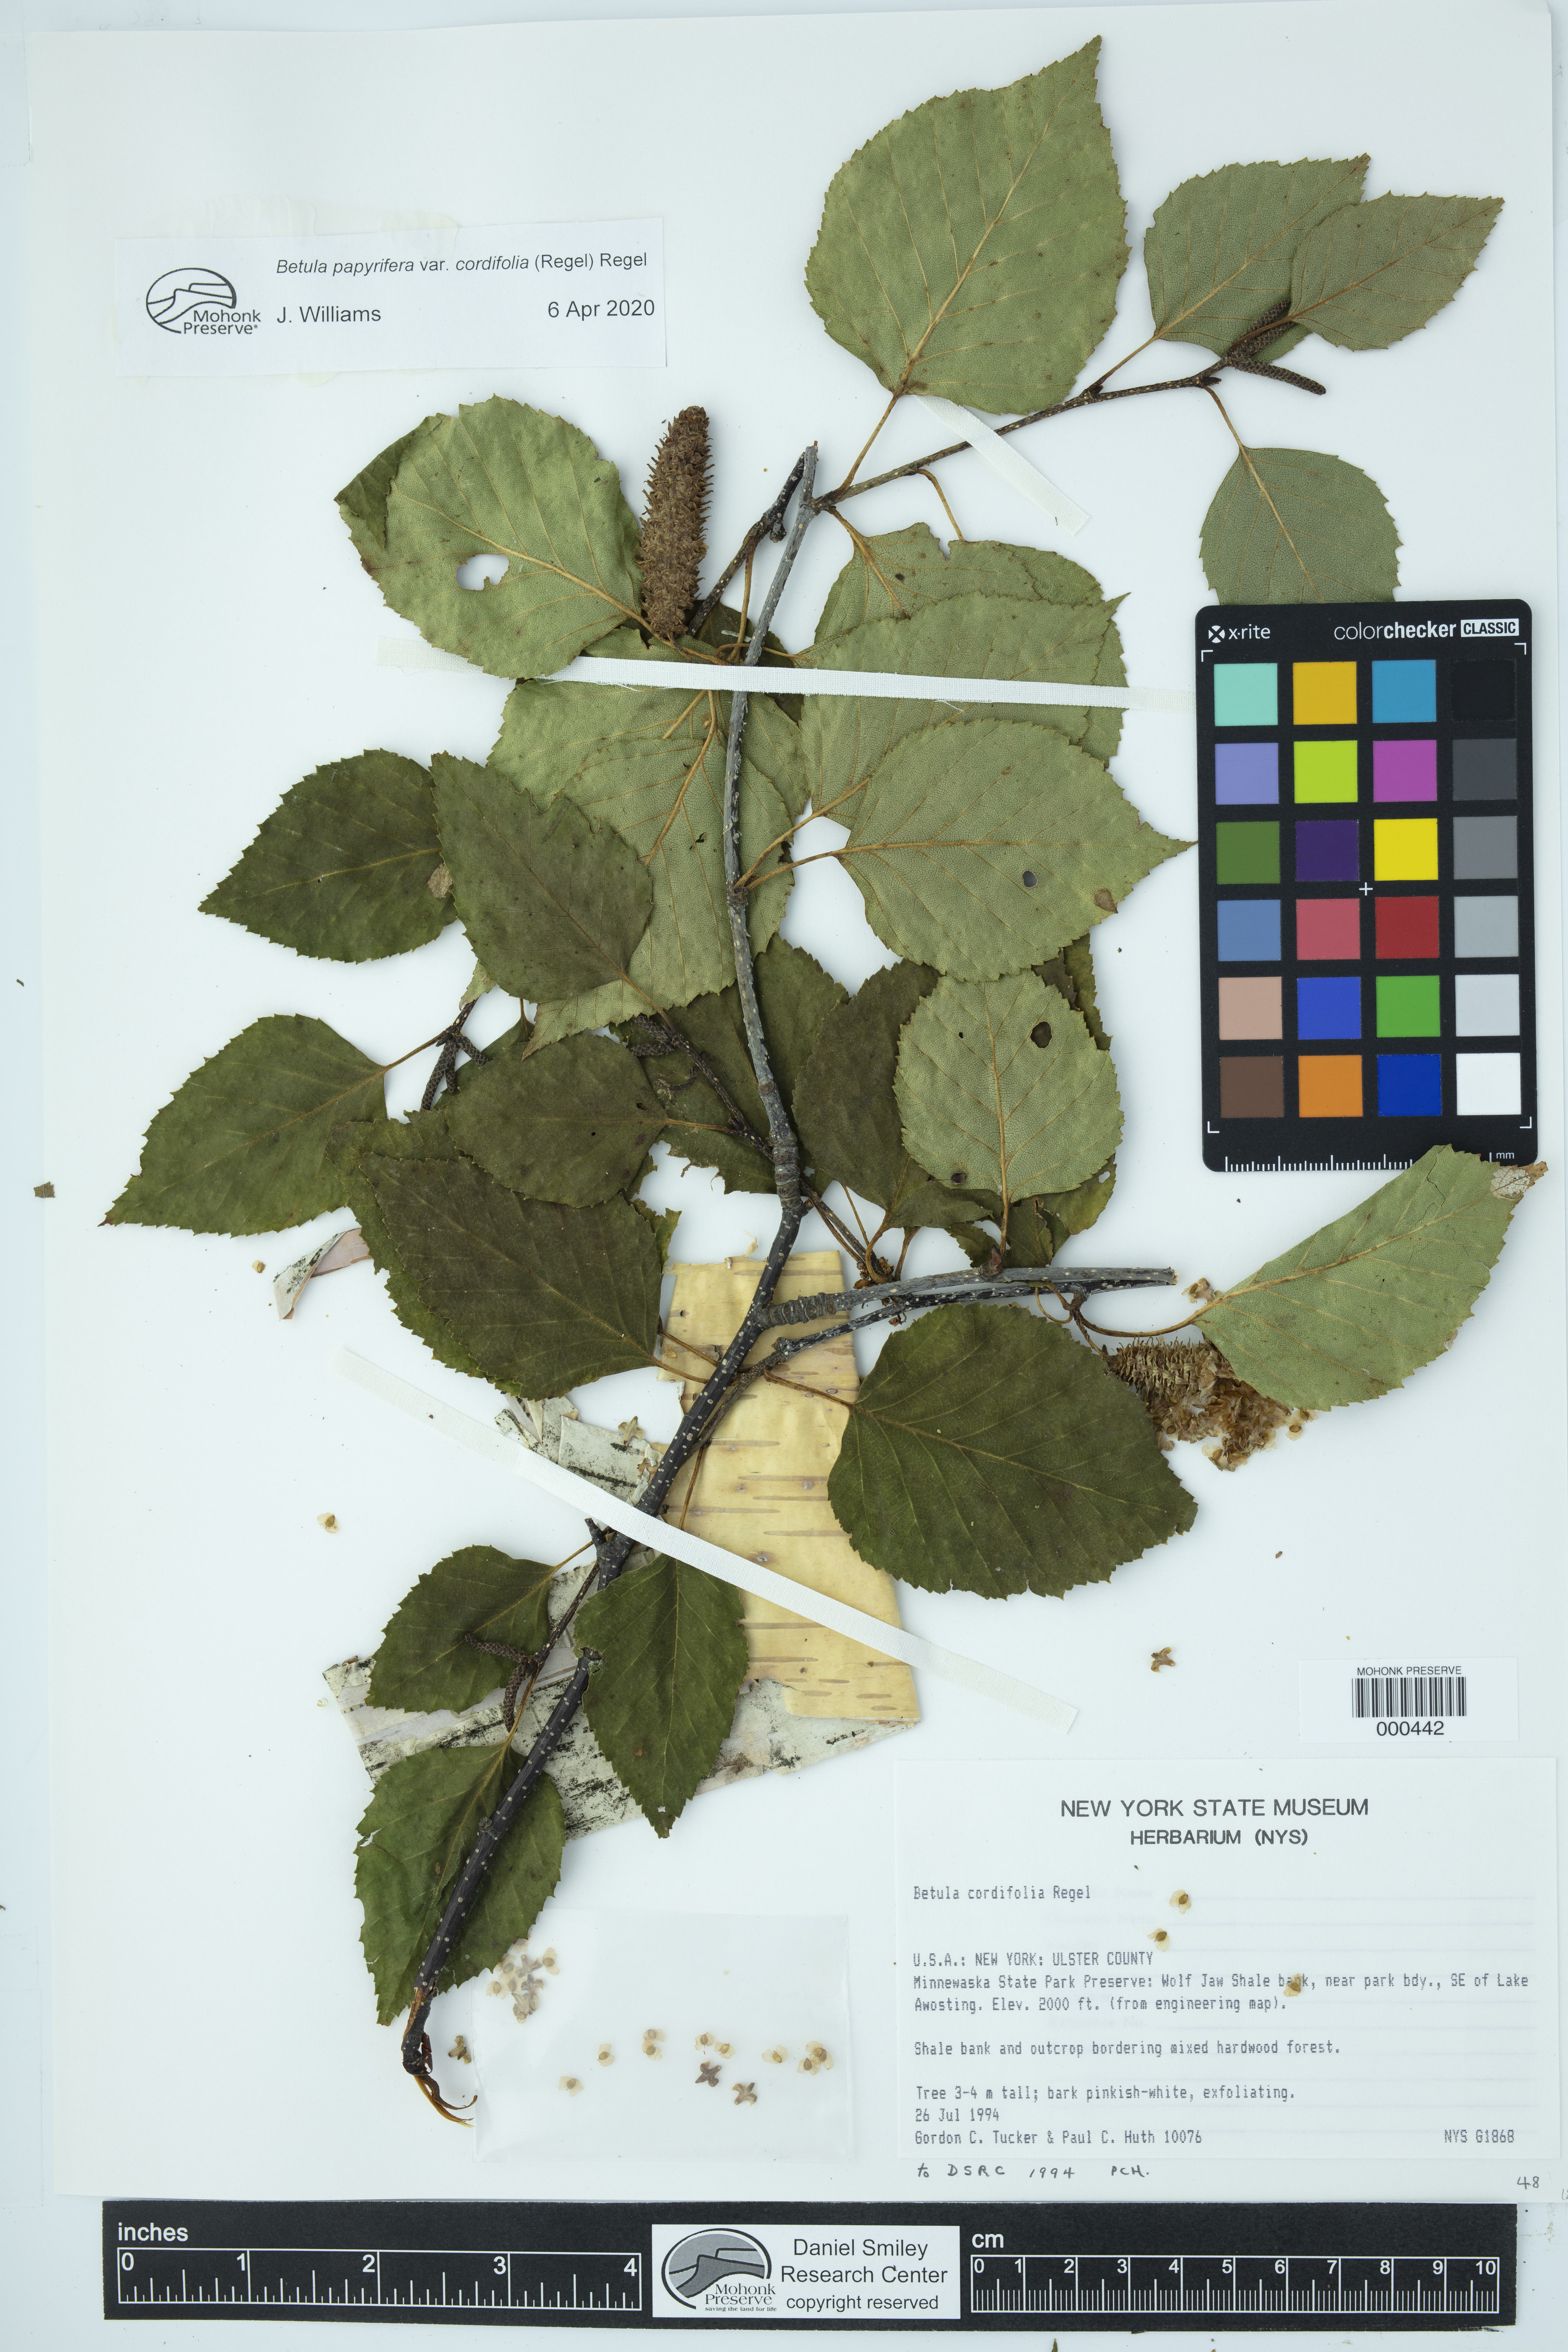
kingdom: Plantae
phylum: Tracheophyta
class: Magnoliopsida
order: Fagales
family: Betulaceae
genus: Betula
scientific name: Betula cordifolia
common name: Mountain white birch
